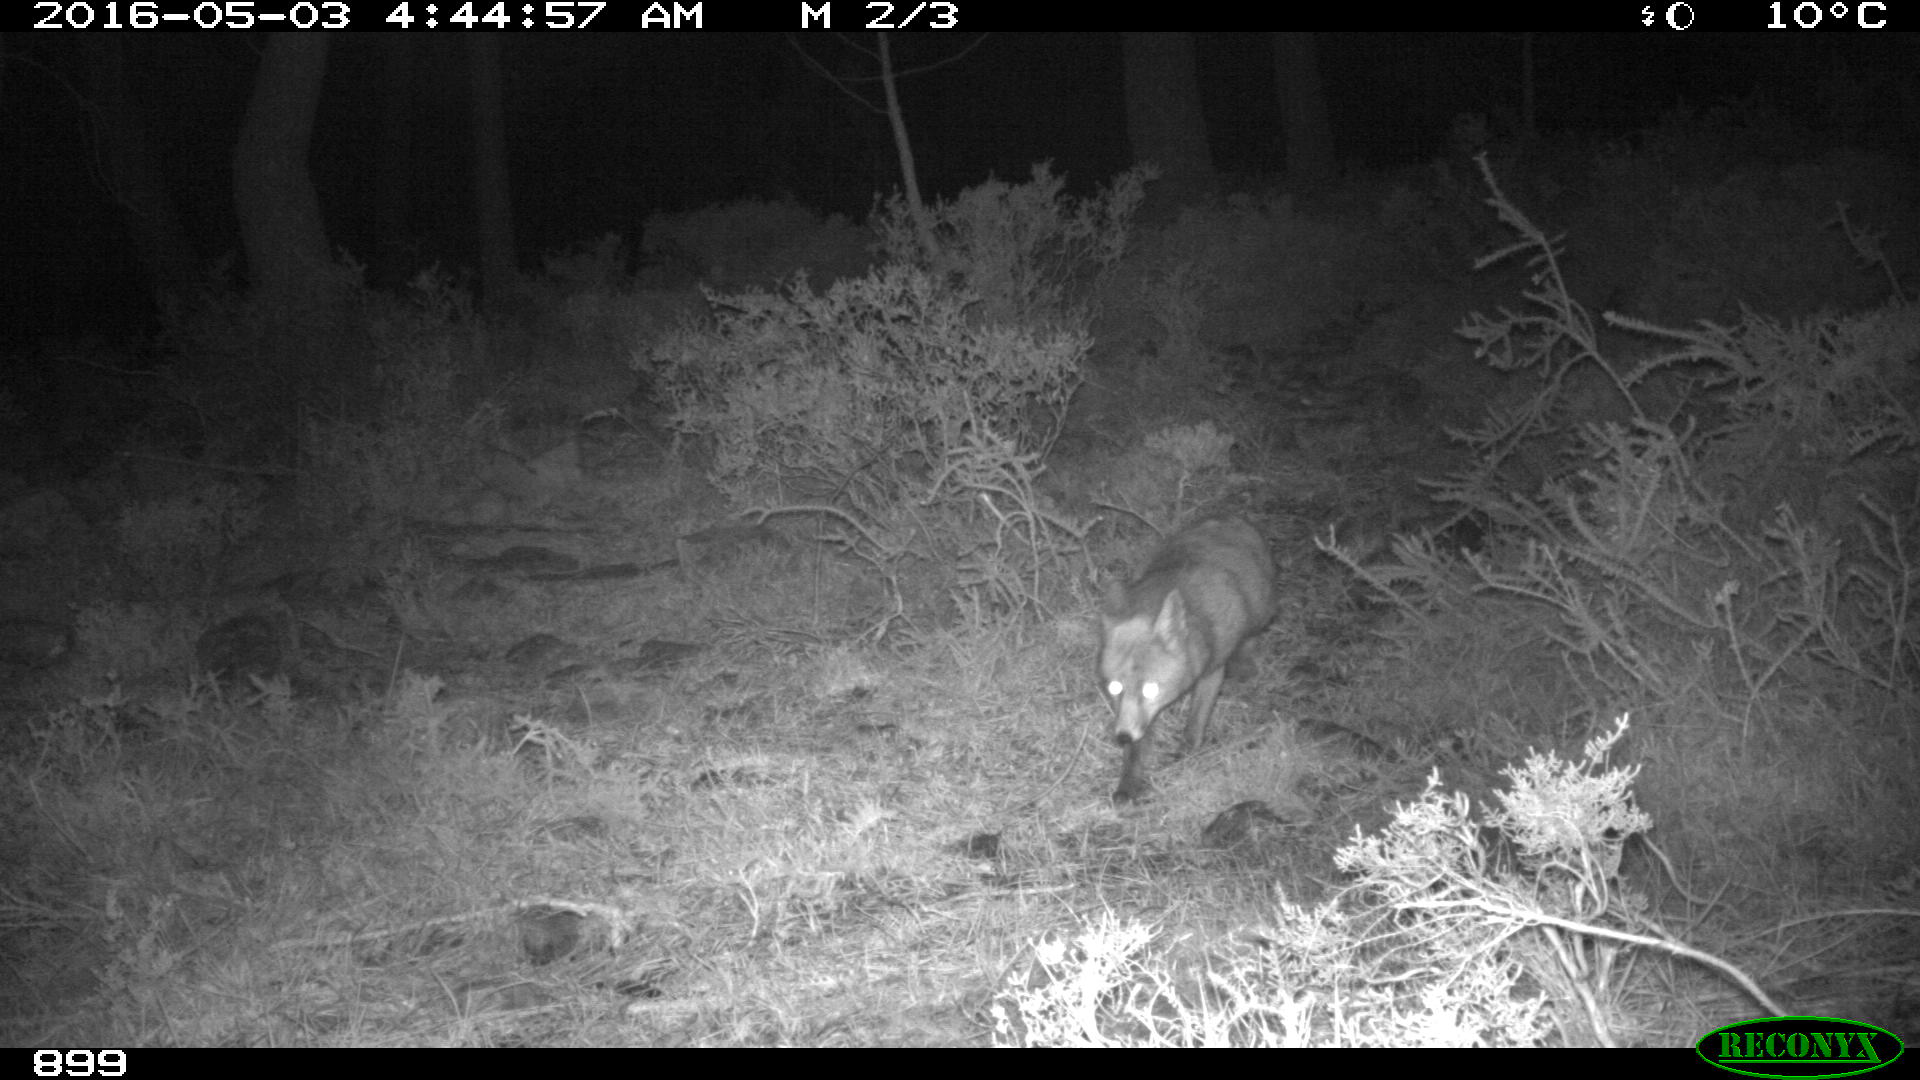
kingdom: Animalia
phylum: Chordata
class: Mammalia
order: Carnivora
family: Canidae
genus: Vulpes
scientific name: Vulpes vulpes
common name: Red fox
